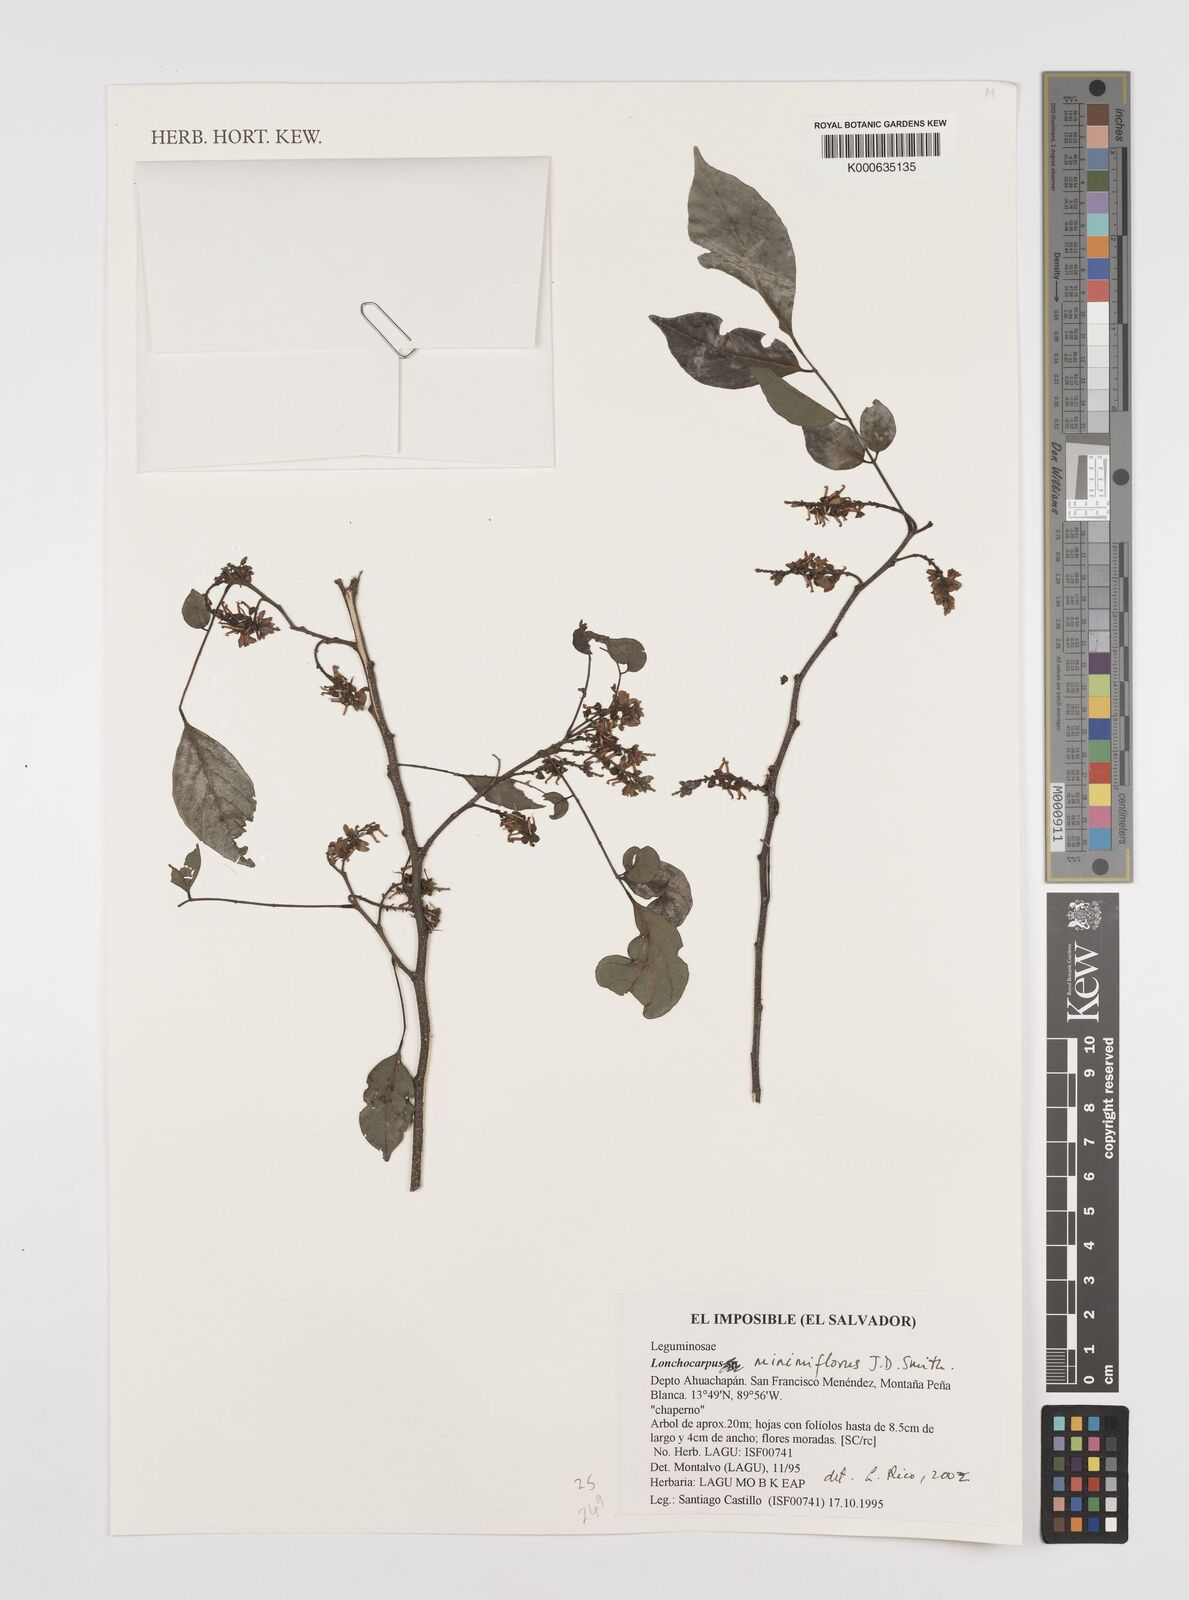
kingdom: Plantae
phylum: Tracheophyta
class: Magnoliopsida
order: Fabales
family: Fabaceae
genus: Lonchocarpus
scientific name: Lonchocarpus
